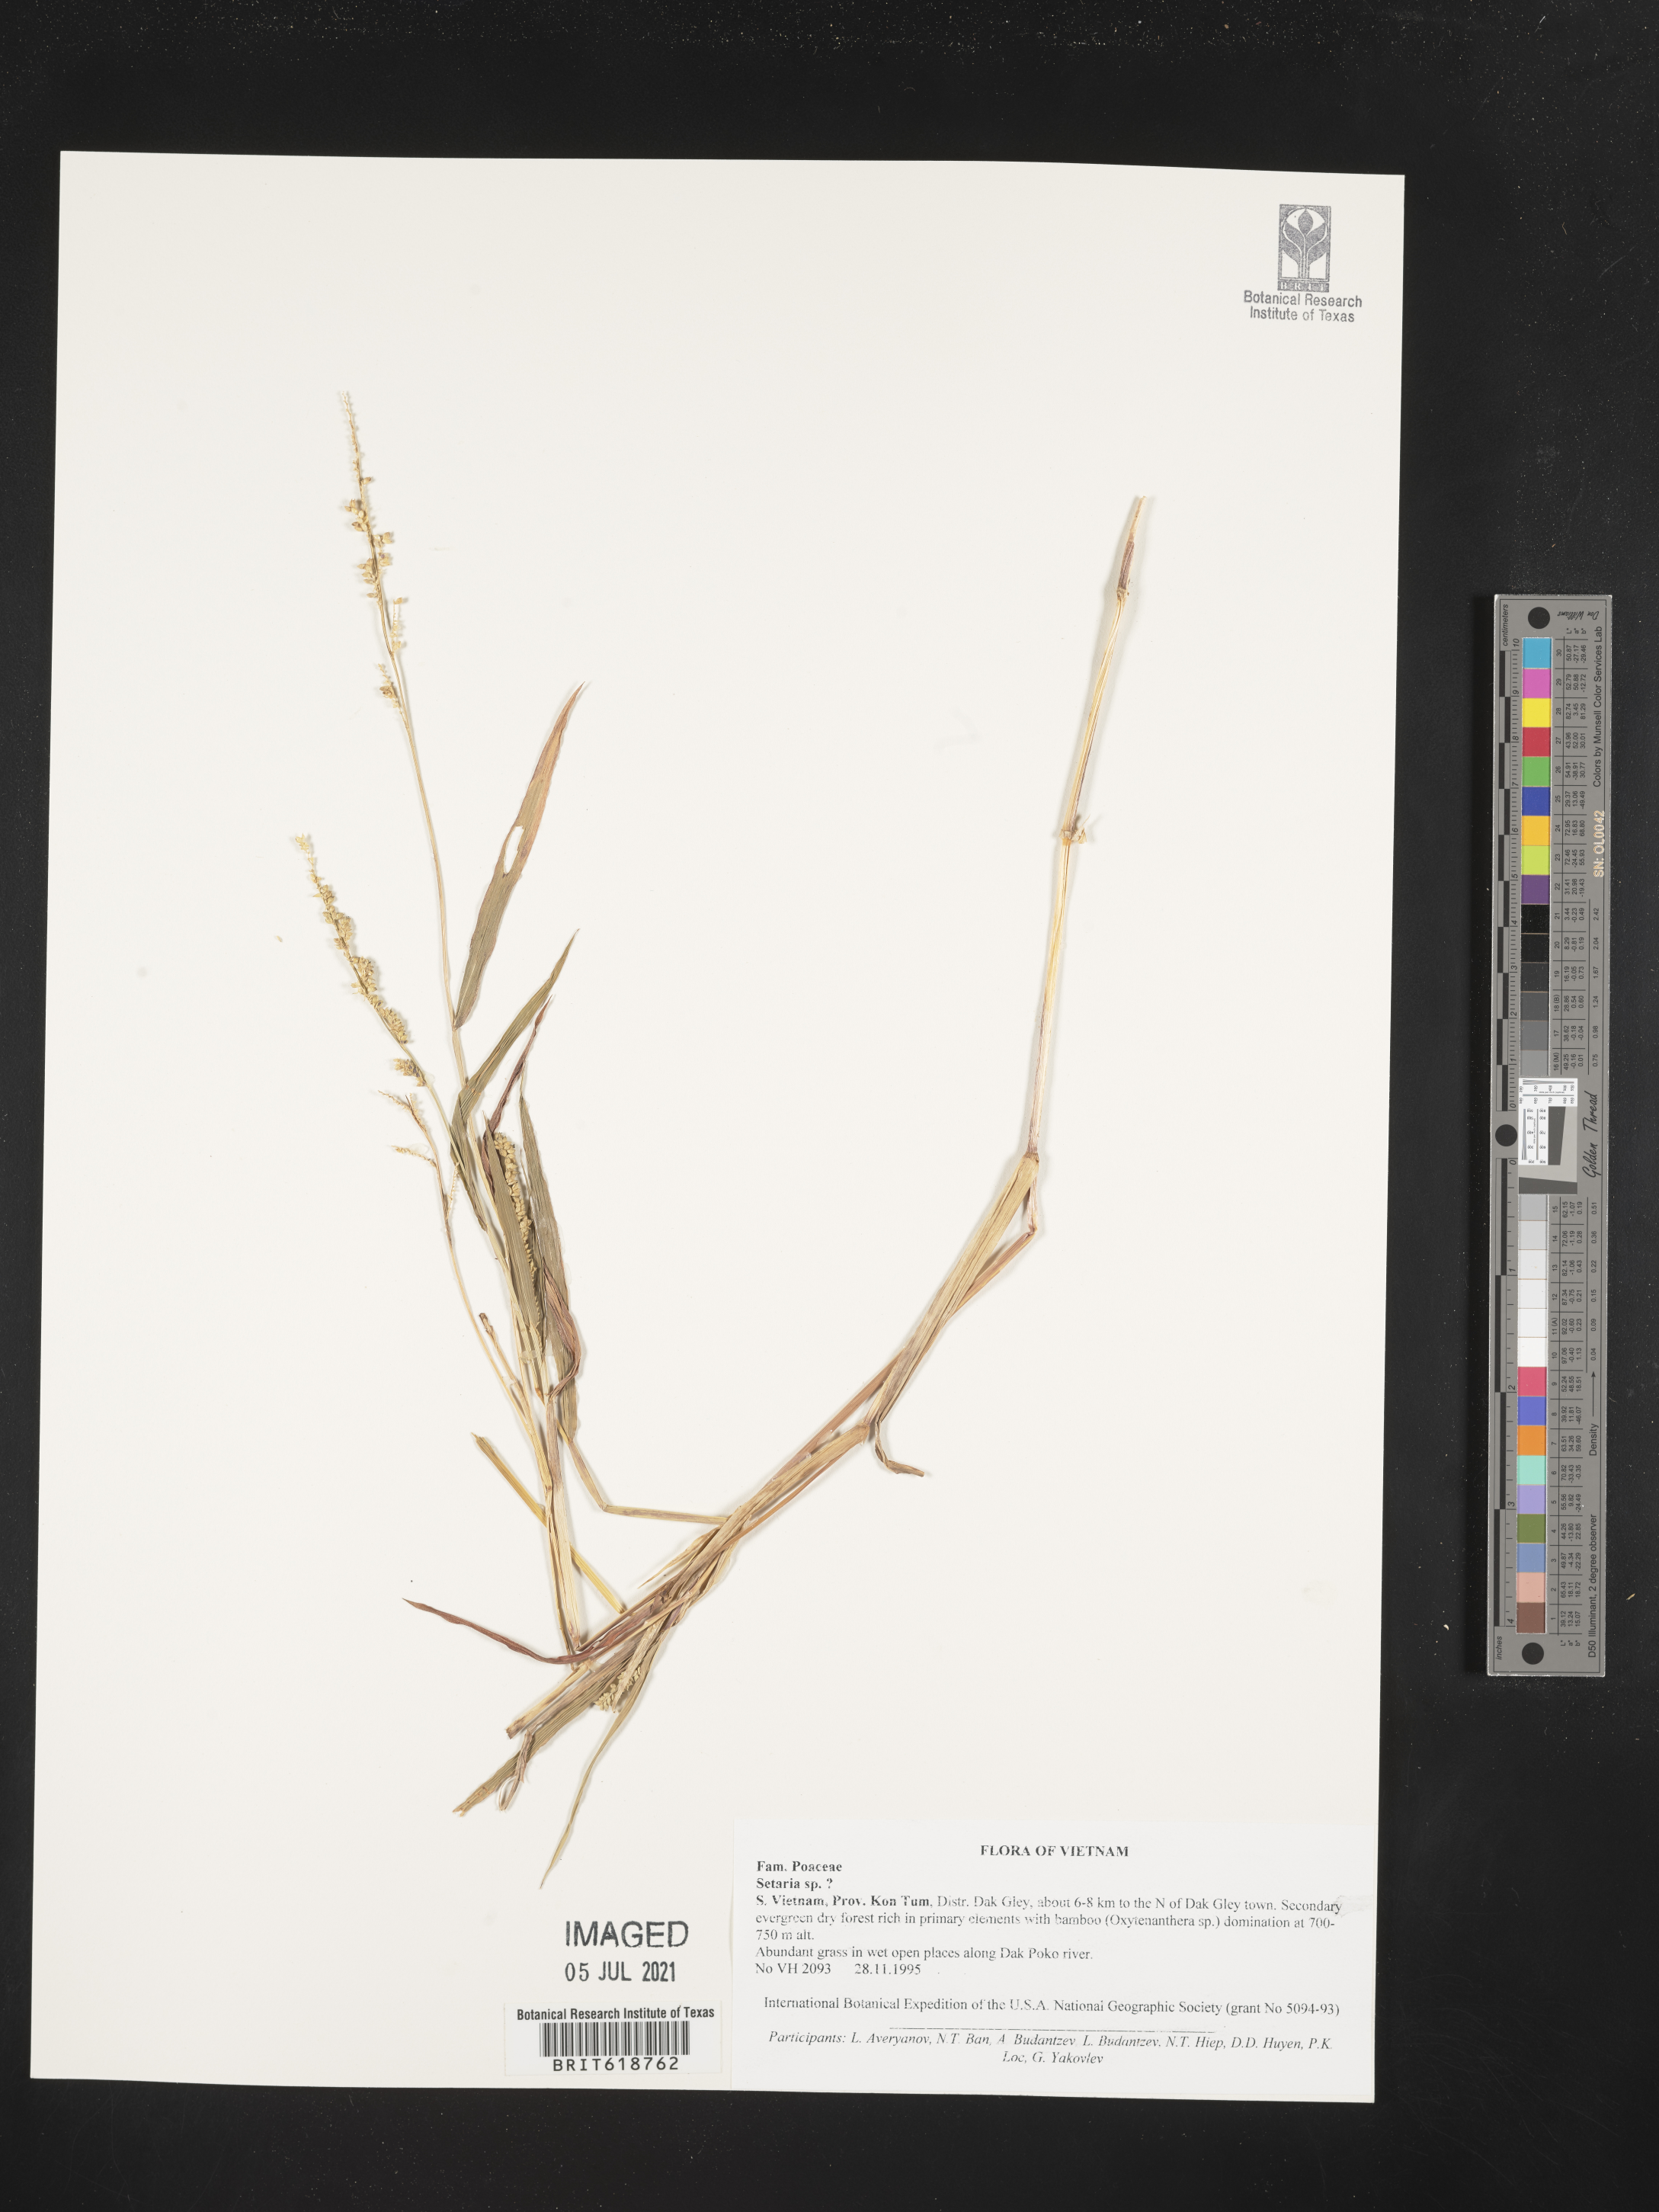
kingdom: Plantae
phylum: Tracheophyta
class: Liliopsida
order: Poales
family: Poaceae
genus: Setaria
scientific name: Setaria
